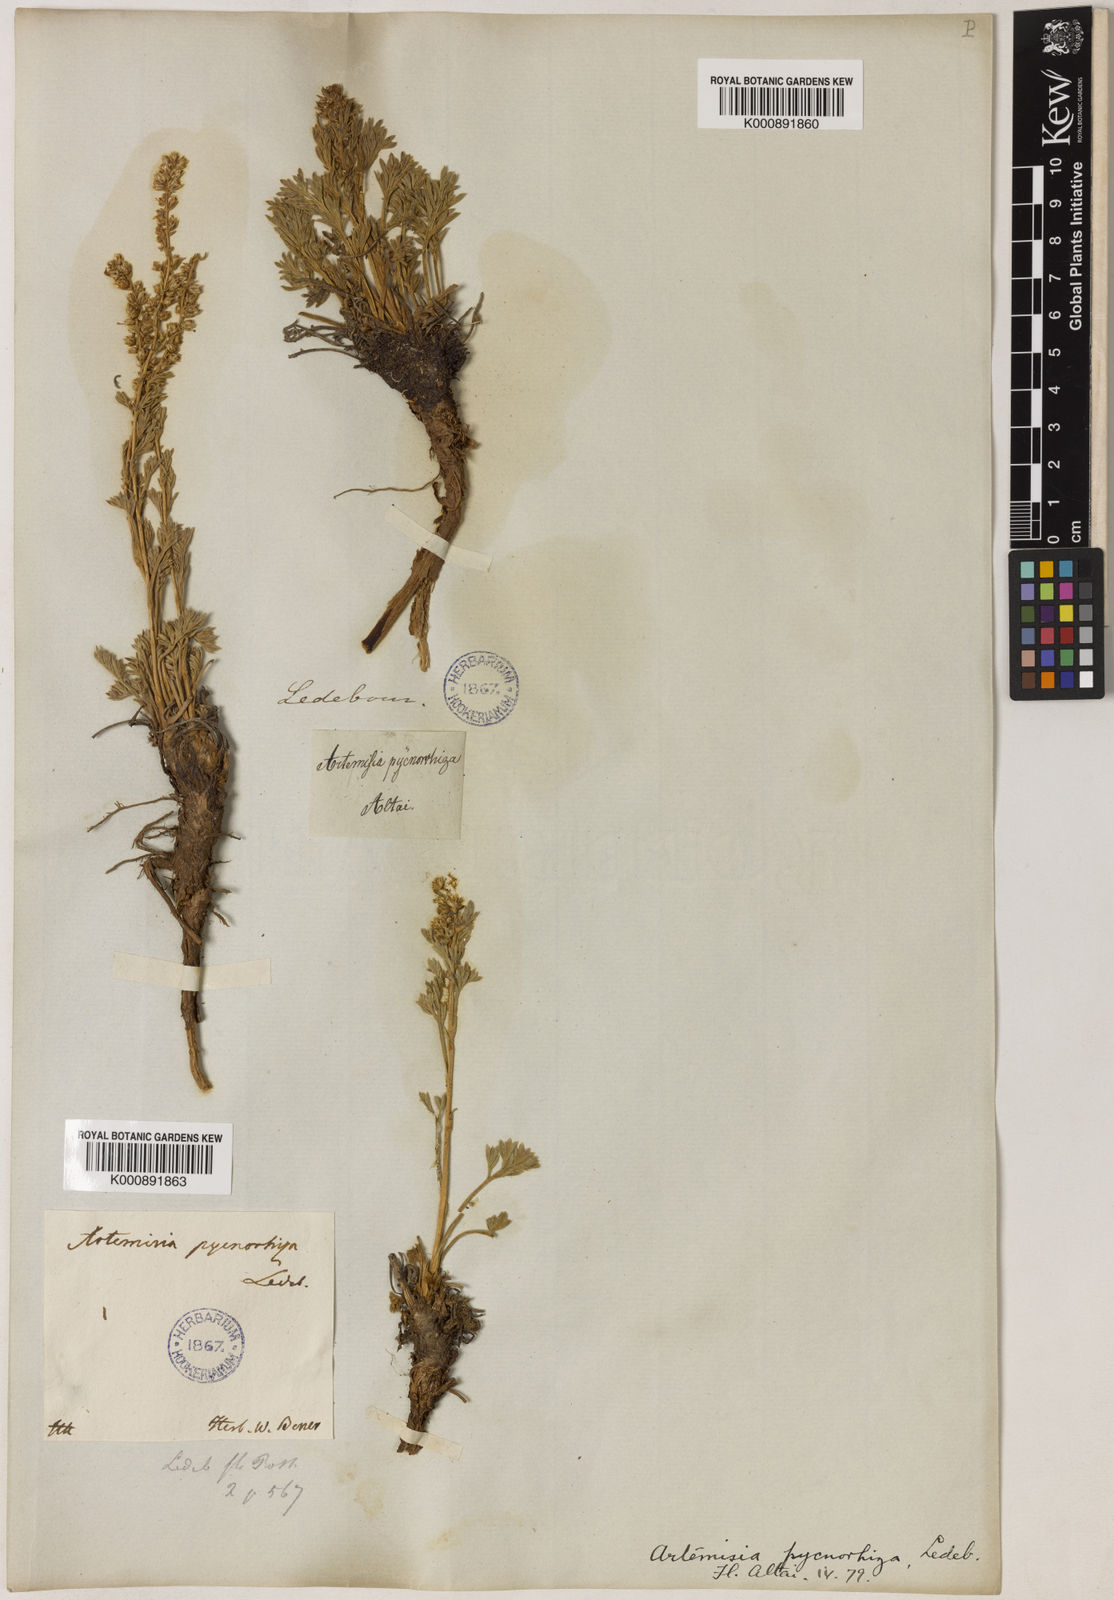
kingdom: Plantae
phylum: Tracheophyta
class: Magnoliopsida
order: Asterales
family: Asteraceae
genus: Artemisia
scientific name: Artemisia pycnorrhiza
